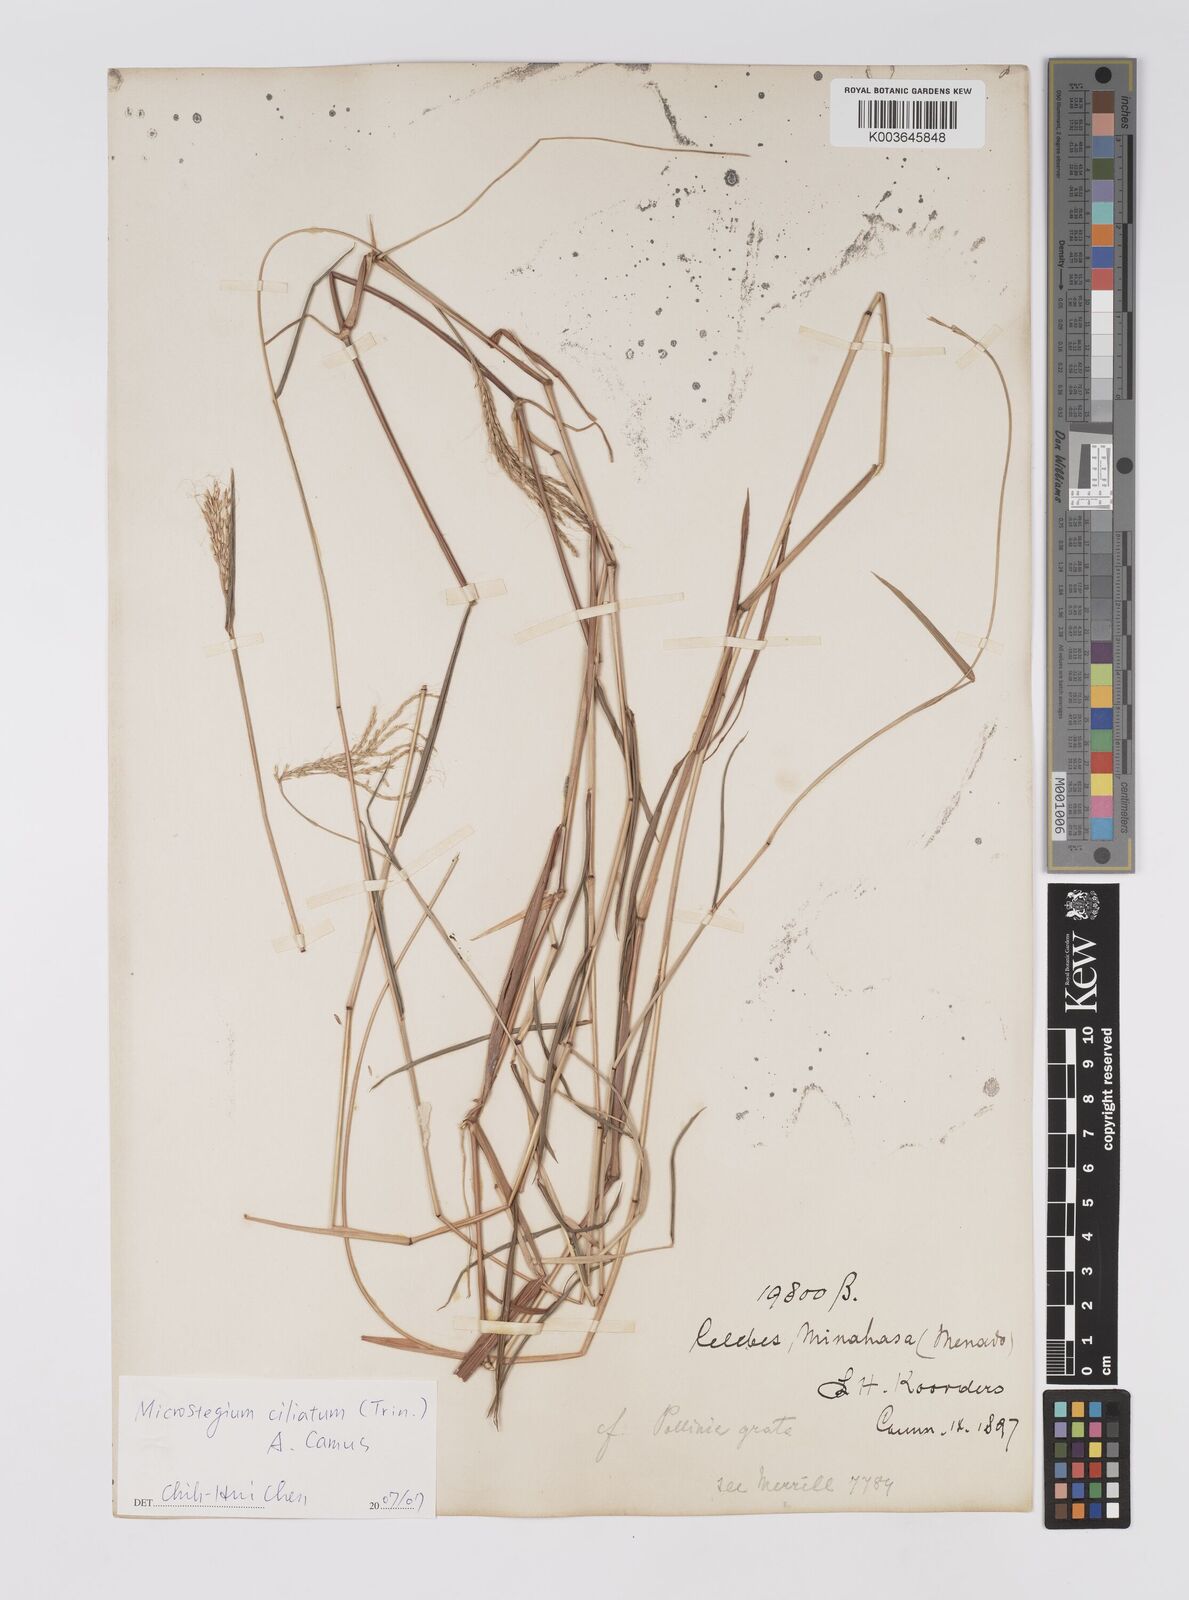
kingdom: Plantae
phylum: Tracheophyta
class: Liliopsida
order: Poales
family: Poaceae
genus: Microstegium
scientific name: Microstegium fasciculatum
